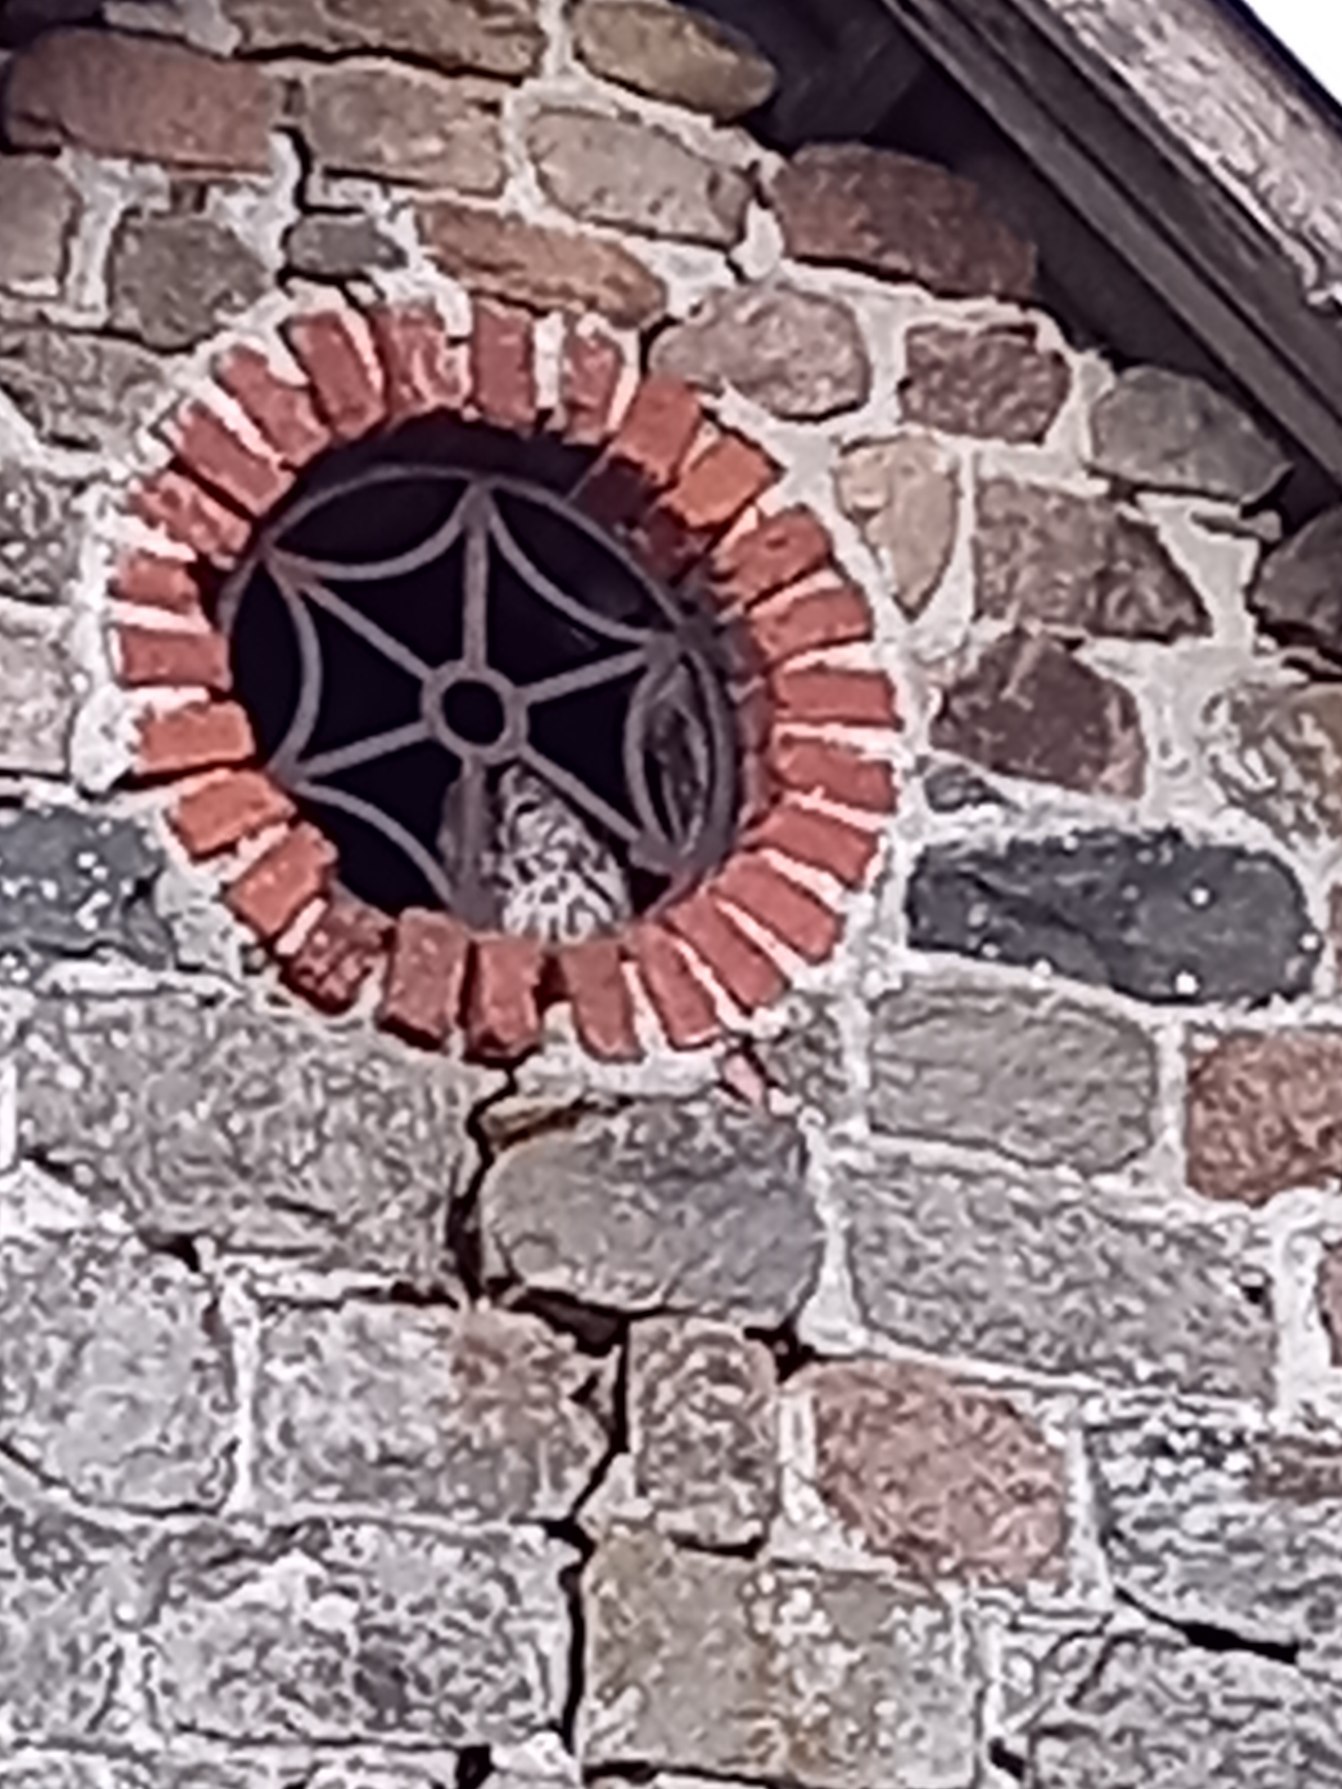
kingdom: Animalia
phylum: Chordata
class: Aves
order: Strigiformes
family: Strigidae
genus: Strix
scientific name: Strix aluco
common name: Natugle
